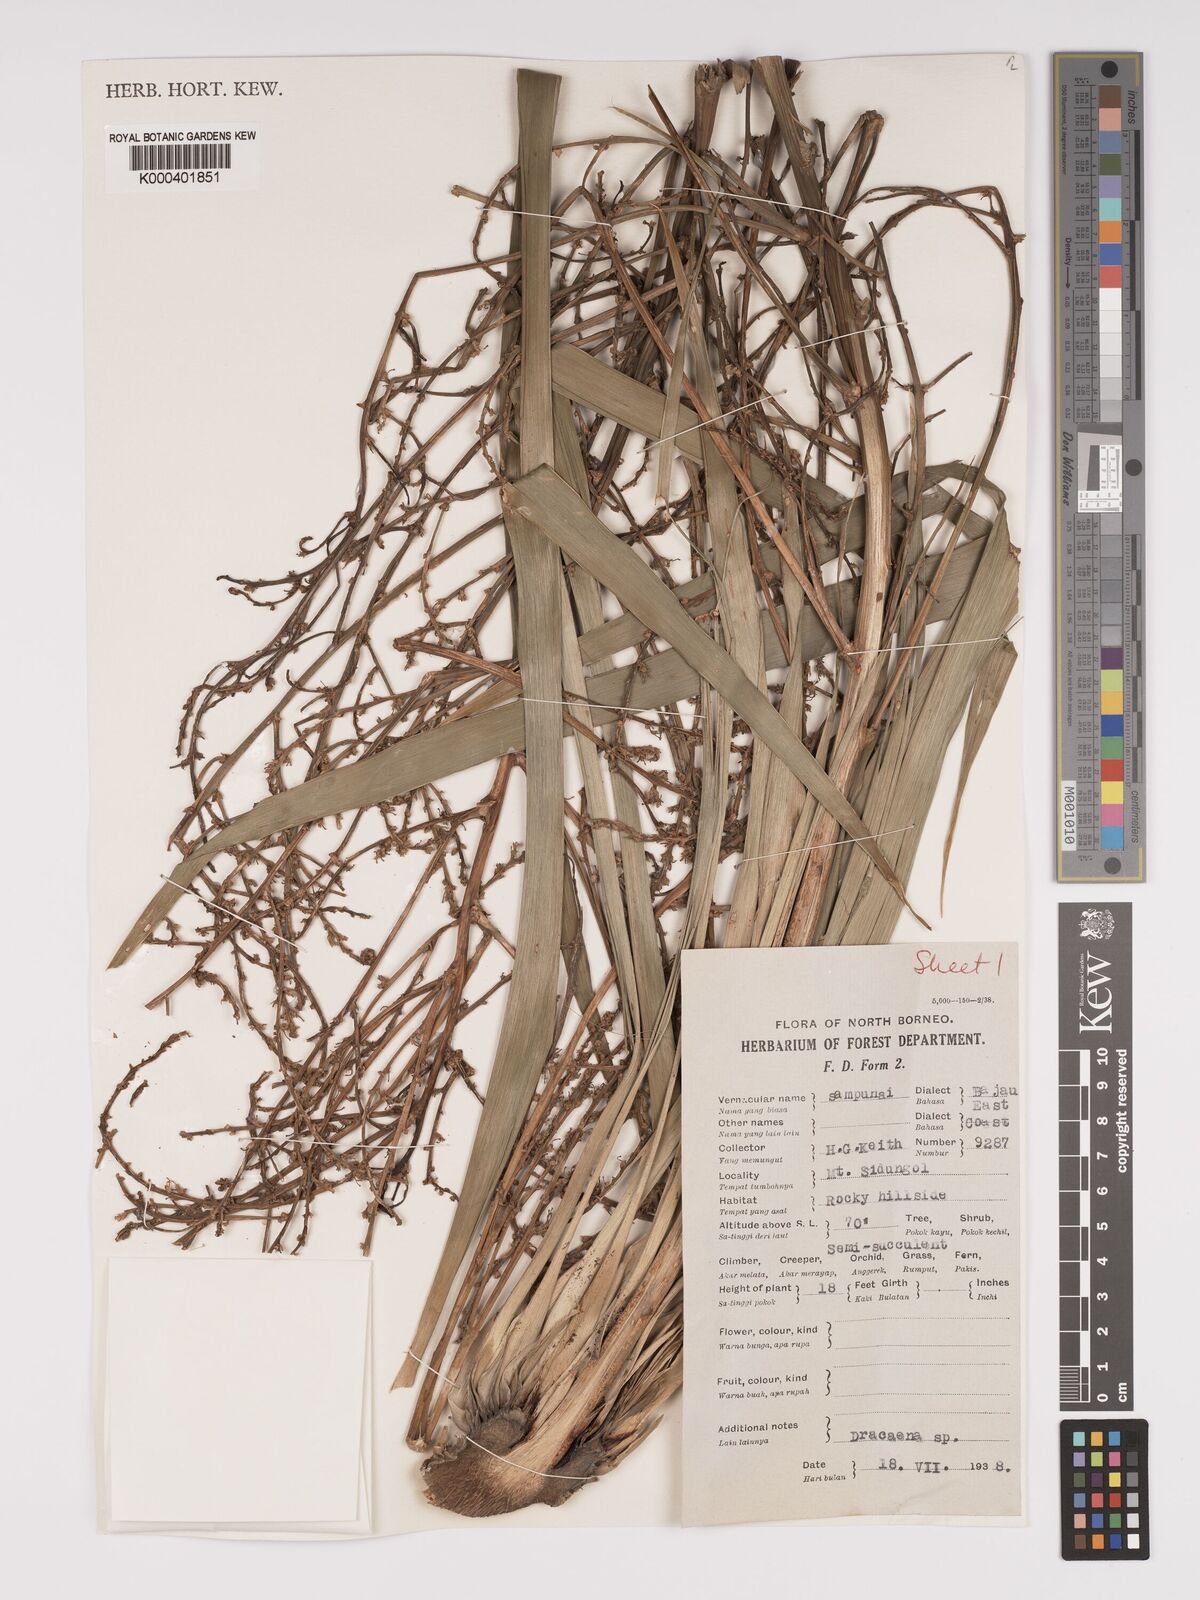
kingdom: Plantae
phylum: Tracheophyta
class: Liliopsida
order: Asparagales
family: Asparagaceae
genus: Dracaena
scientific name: Dracaena
